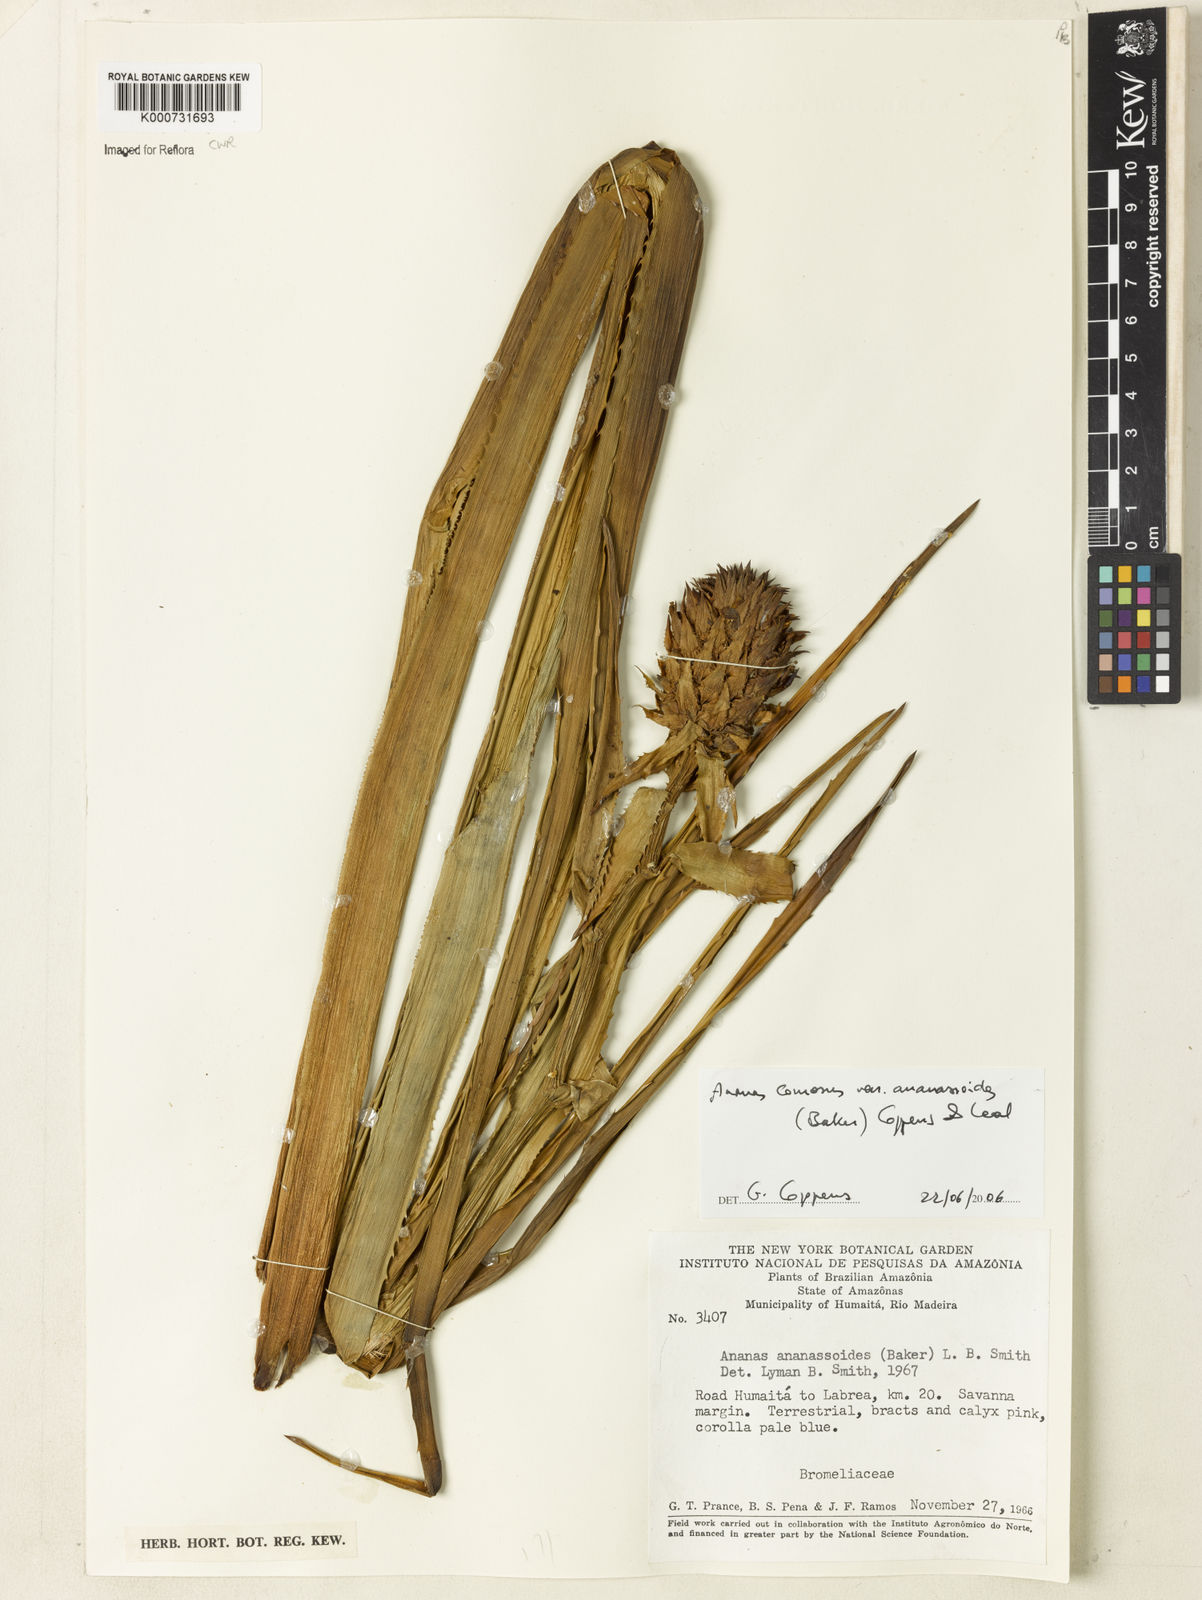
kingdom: Plantae
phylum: Tracheophyta
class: Liliopsida
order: Poales
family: Bromeliaceae
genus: Ananas
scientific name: Ananas comosus
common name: Pineapple
